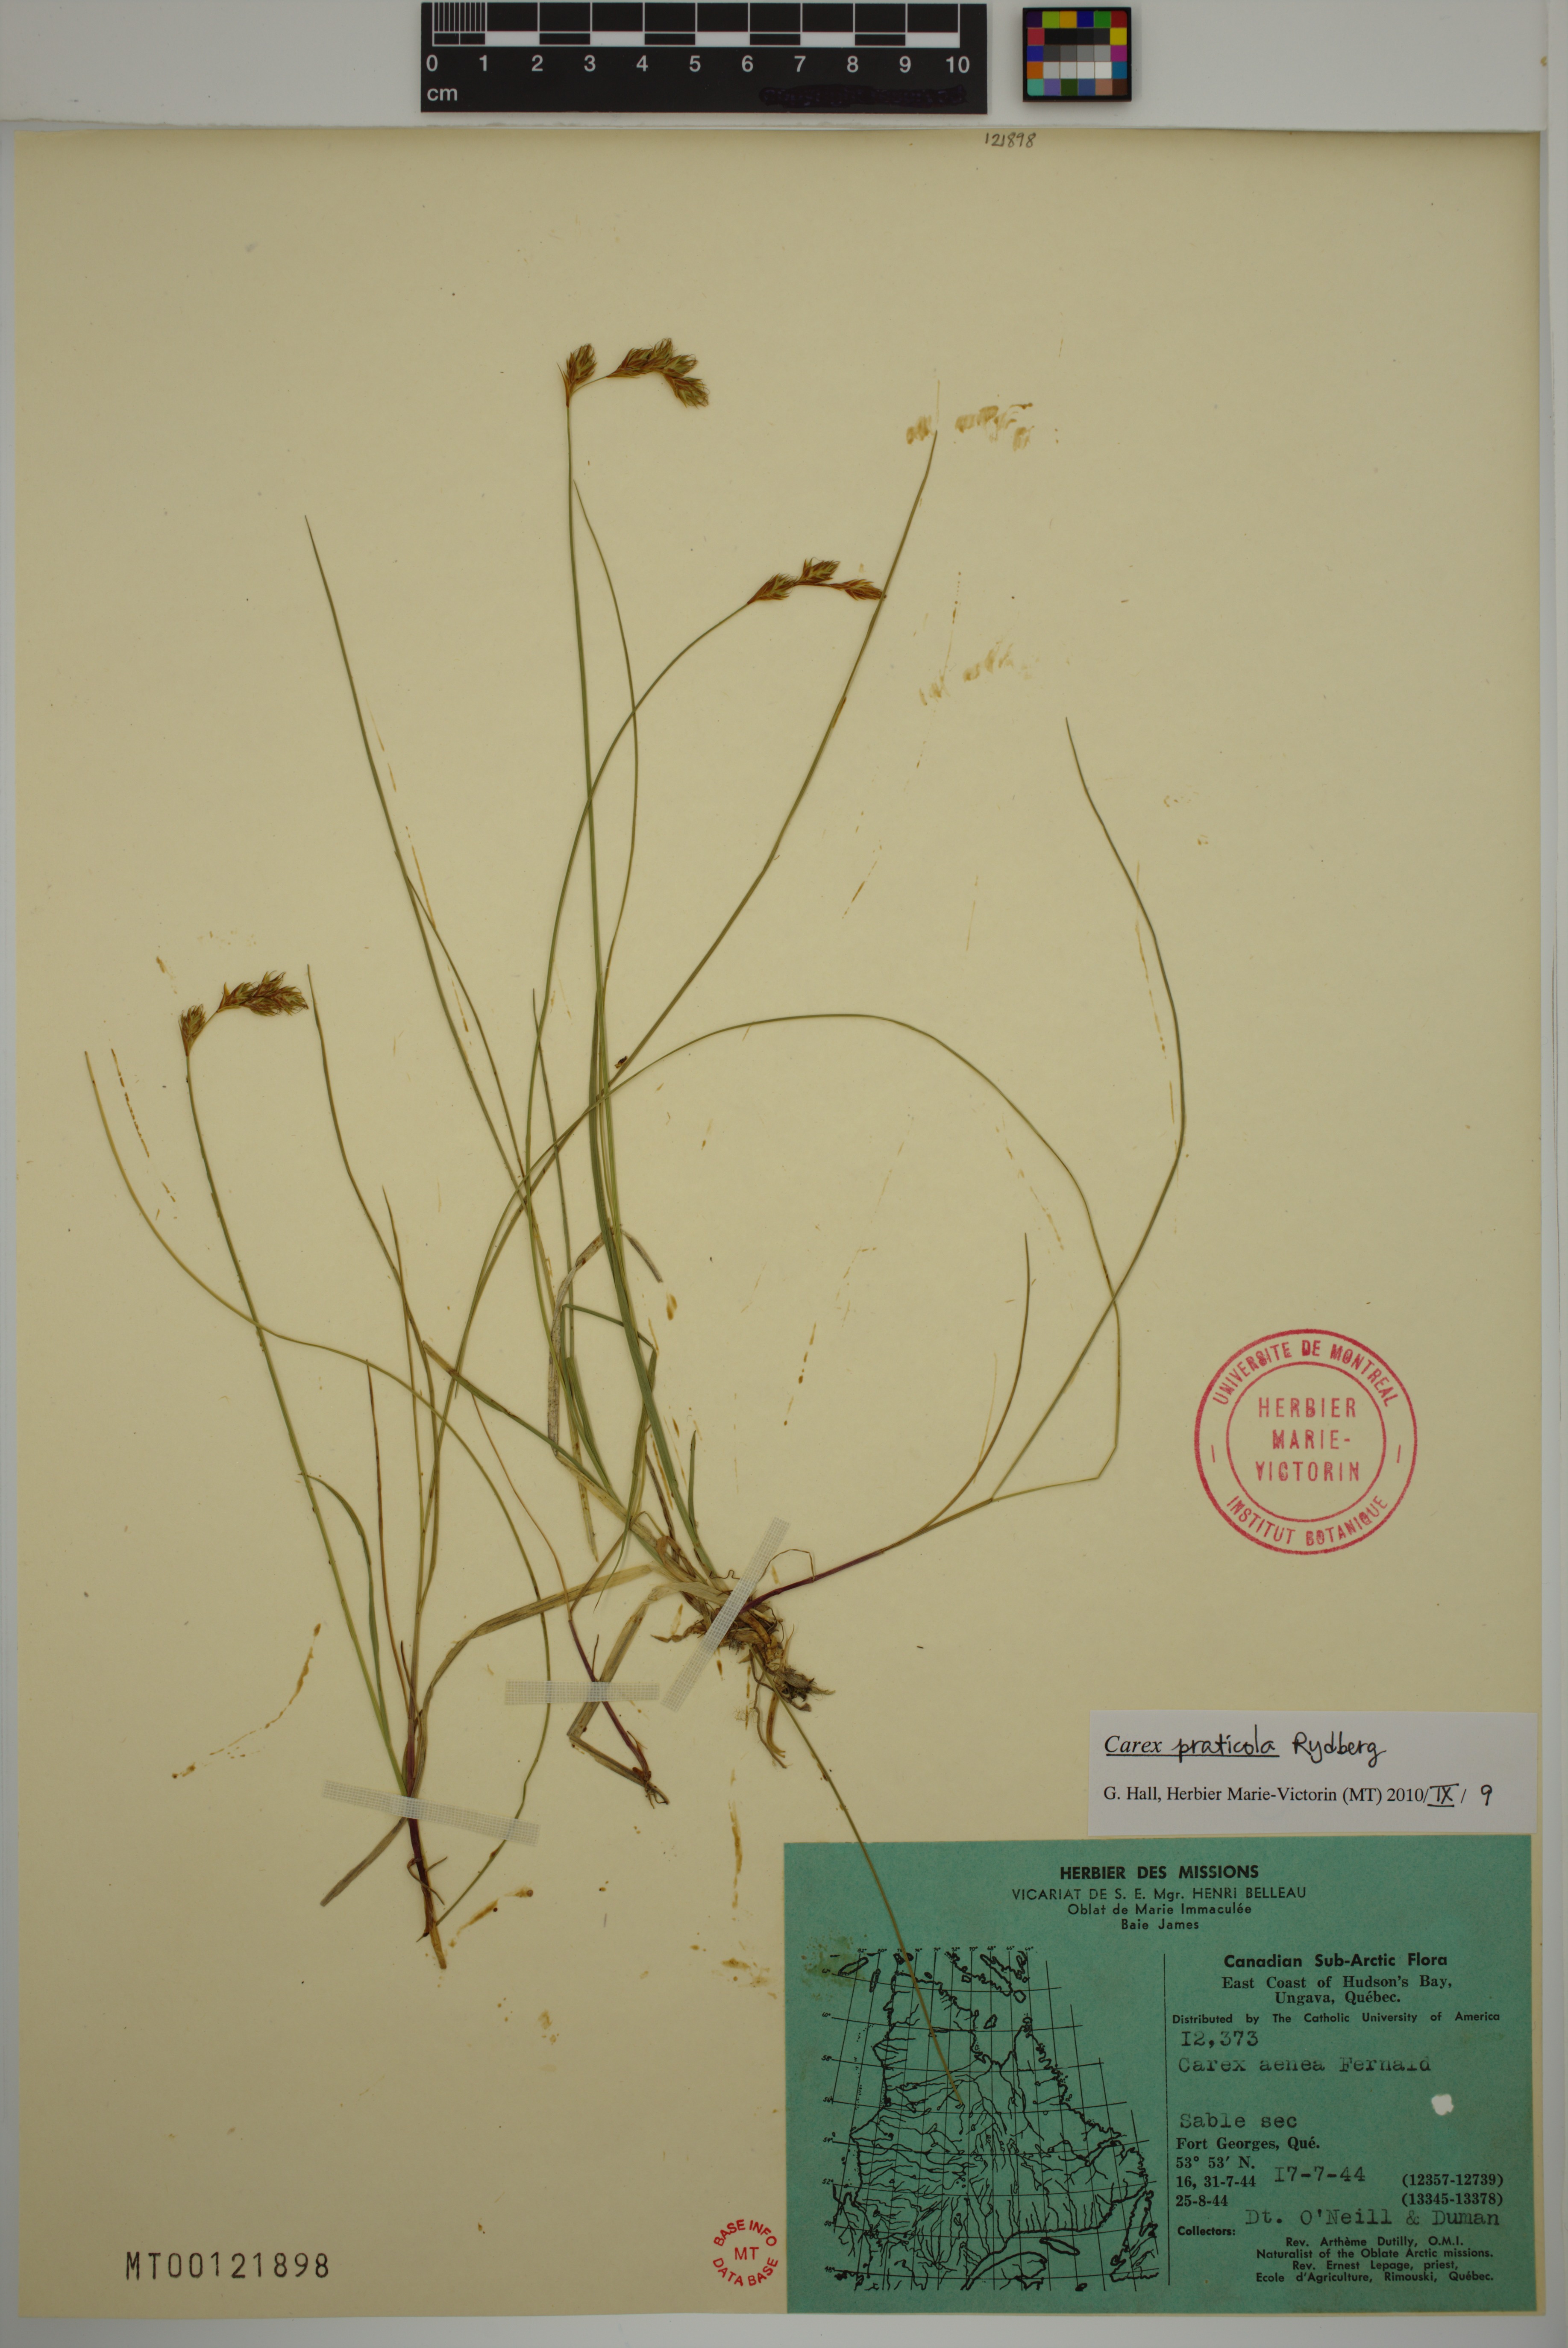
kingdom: Plantae
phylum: Tracheophyta
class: Liliopsida
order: Poales
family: Cyperaceae
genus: Carex
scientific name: Carex praticola
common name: Large-fruited oval sedge
